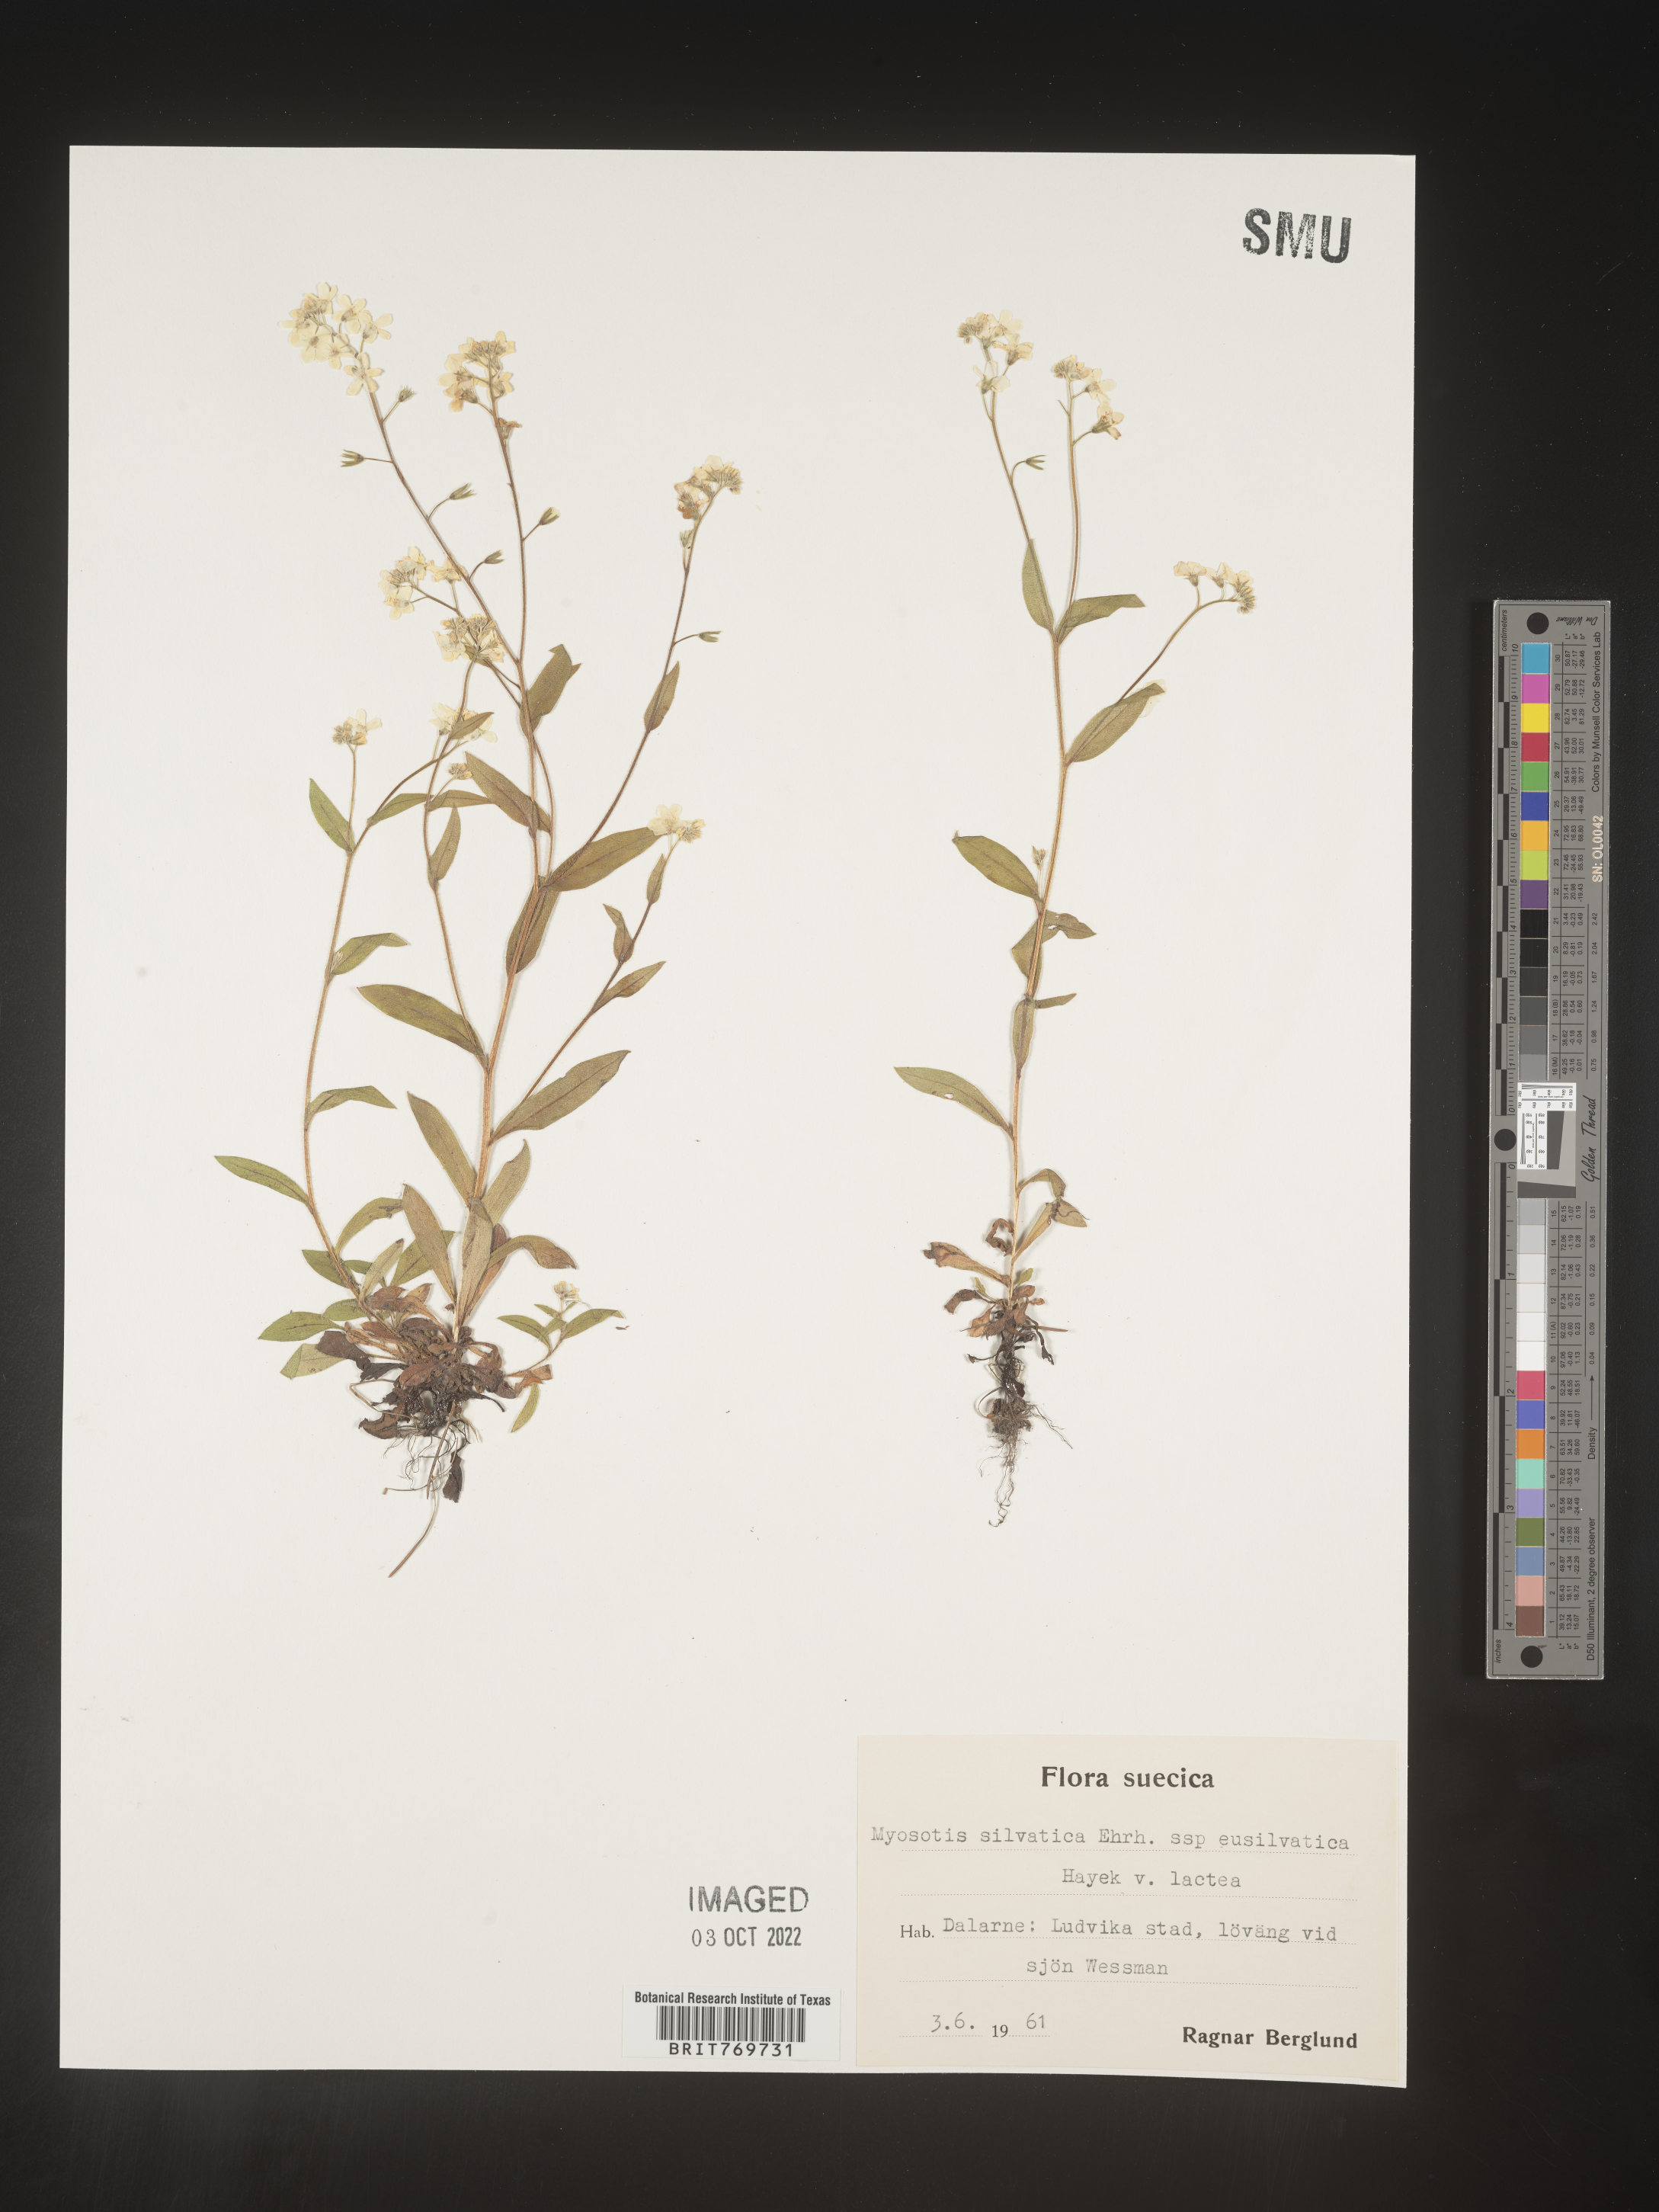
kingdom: Plantae
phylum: Tracheophyta
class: Magnoliopsida
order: Boraginales
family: Boraginaceae
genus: Myosotis
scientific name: Myosotis
